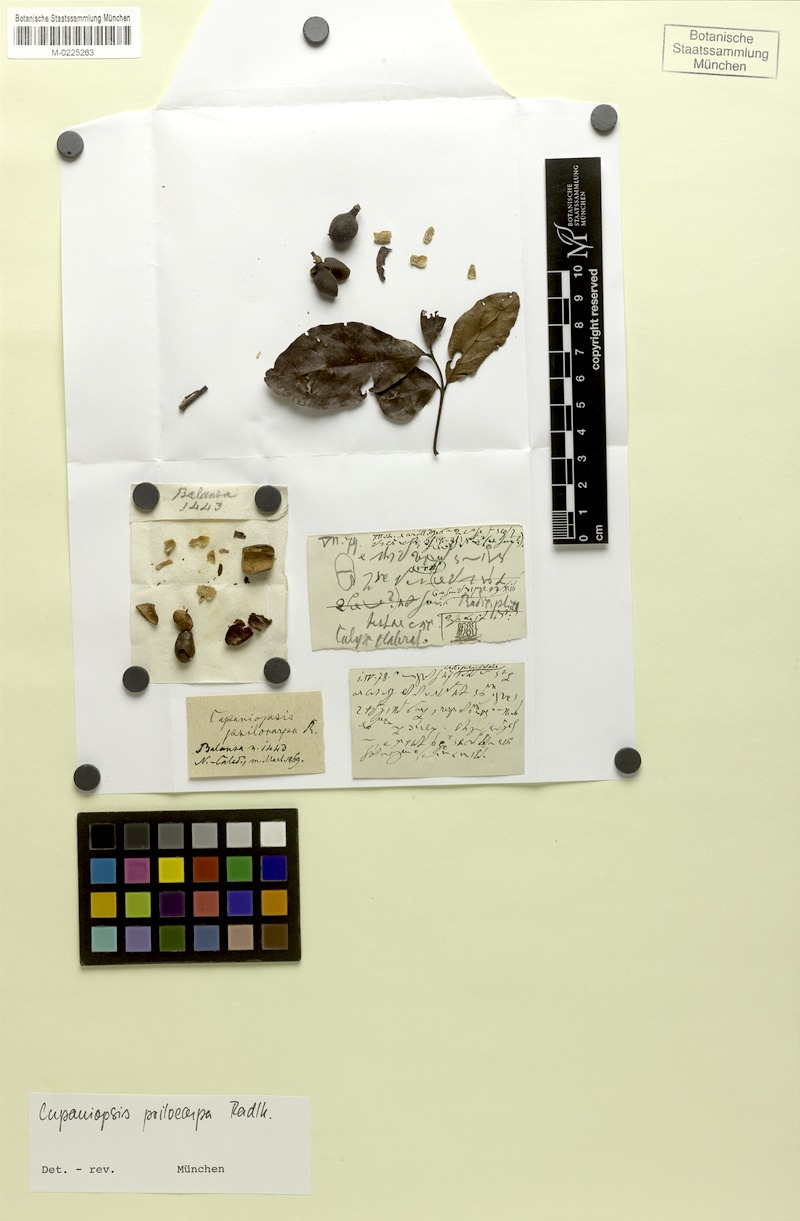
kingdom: Plantae
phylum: Tracheophyta
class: Magnoliopsida
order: Sapindales
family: Sapindaceae
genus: Cupaniopsis
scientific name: Cupaniopsis apiocarpa
